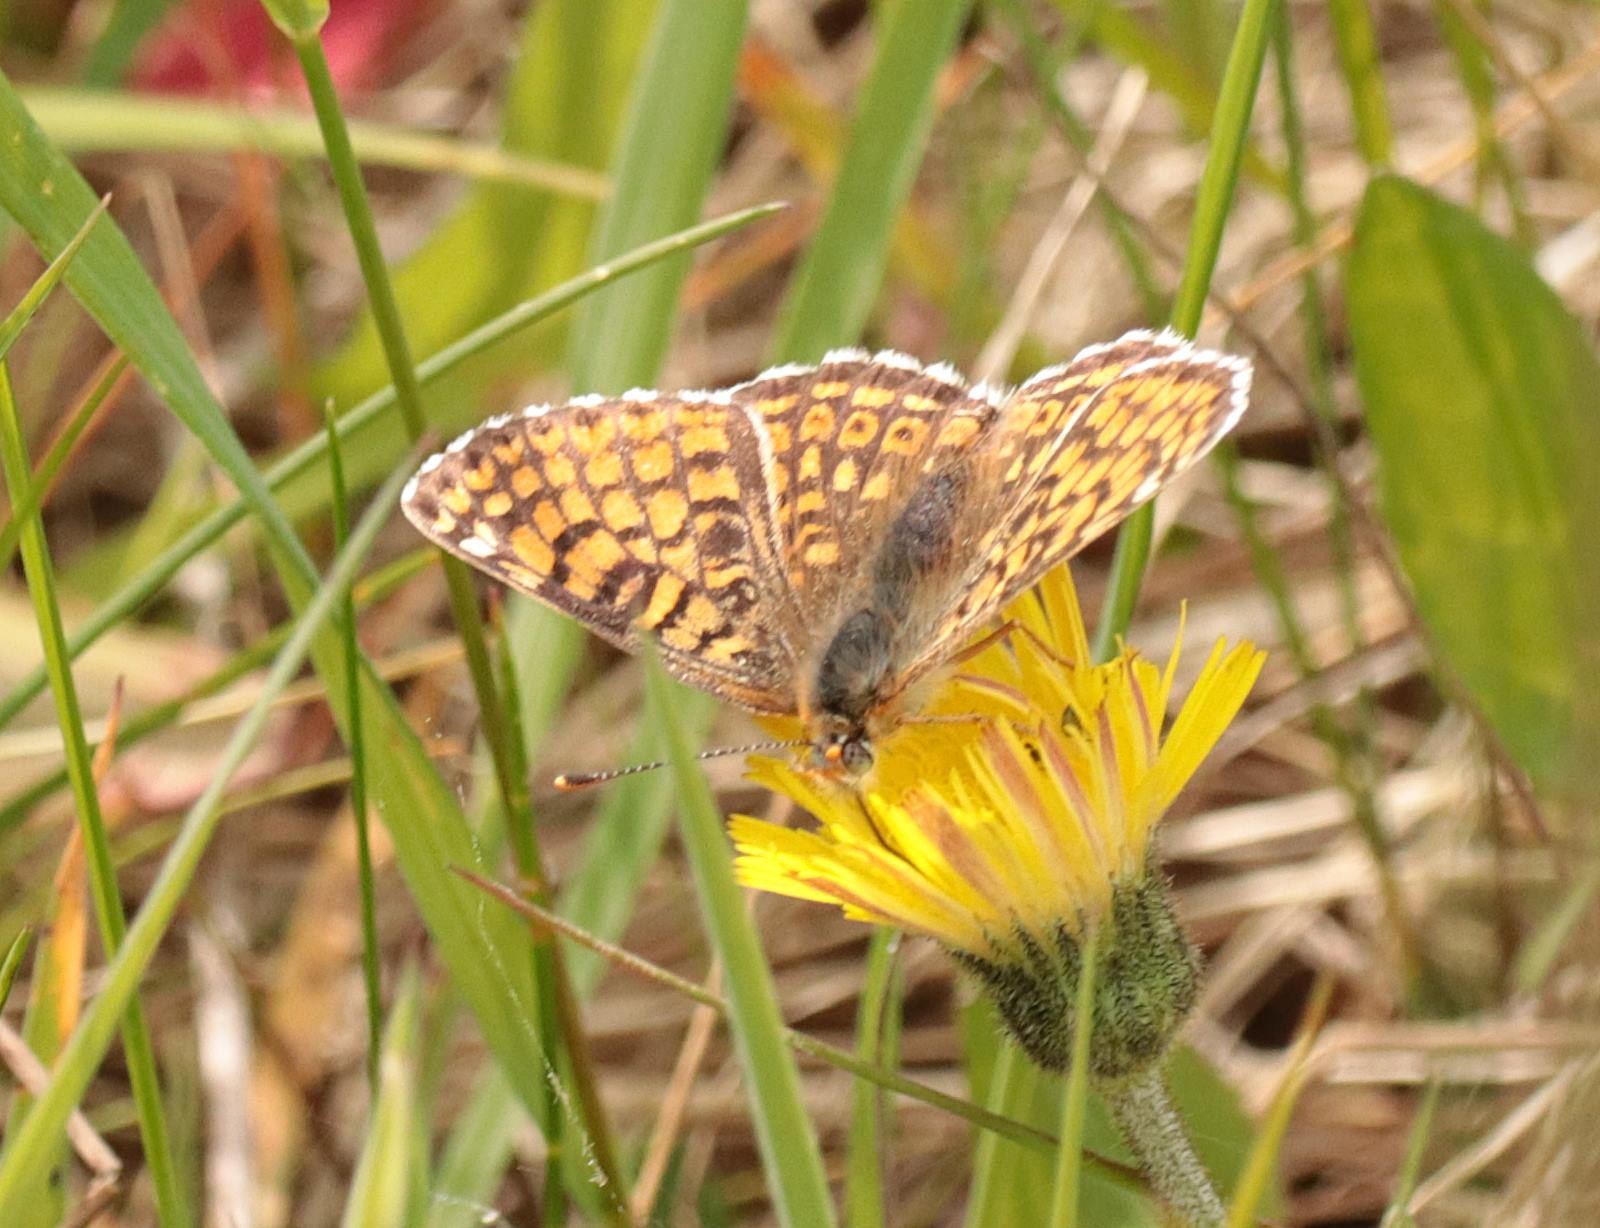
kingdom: Animalia
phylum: Arthropoda
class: Insecta
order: Lepidoptera
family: Nymphalidae
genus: Melitaea
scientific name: Melitaea cinxia
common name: Okkergul pletvinge
